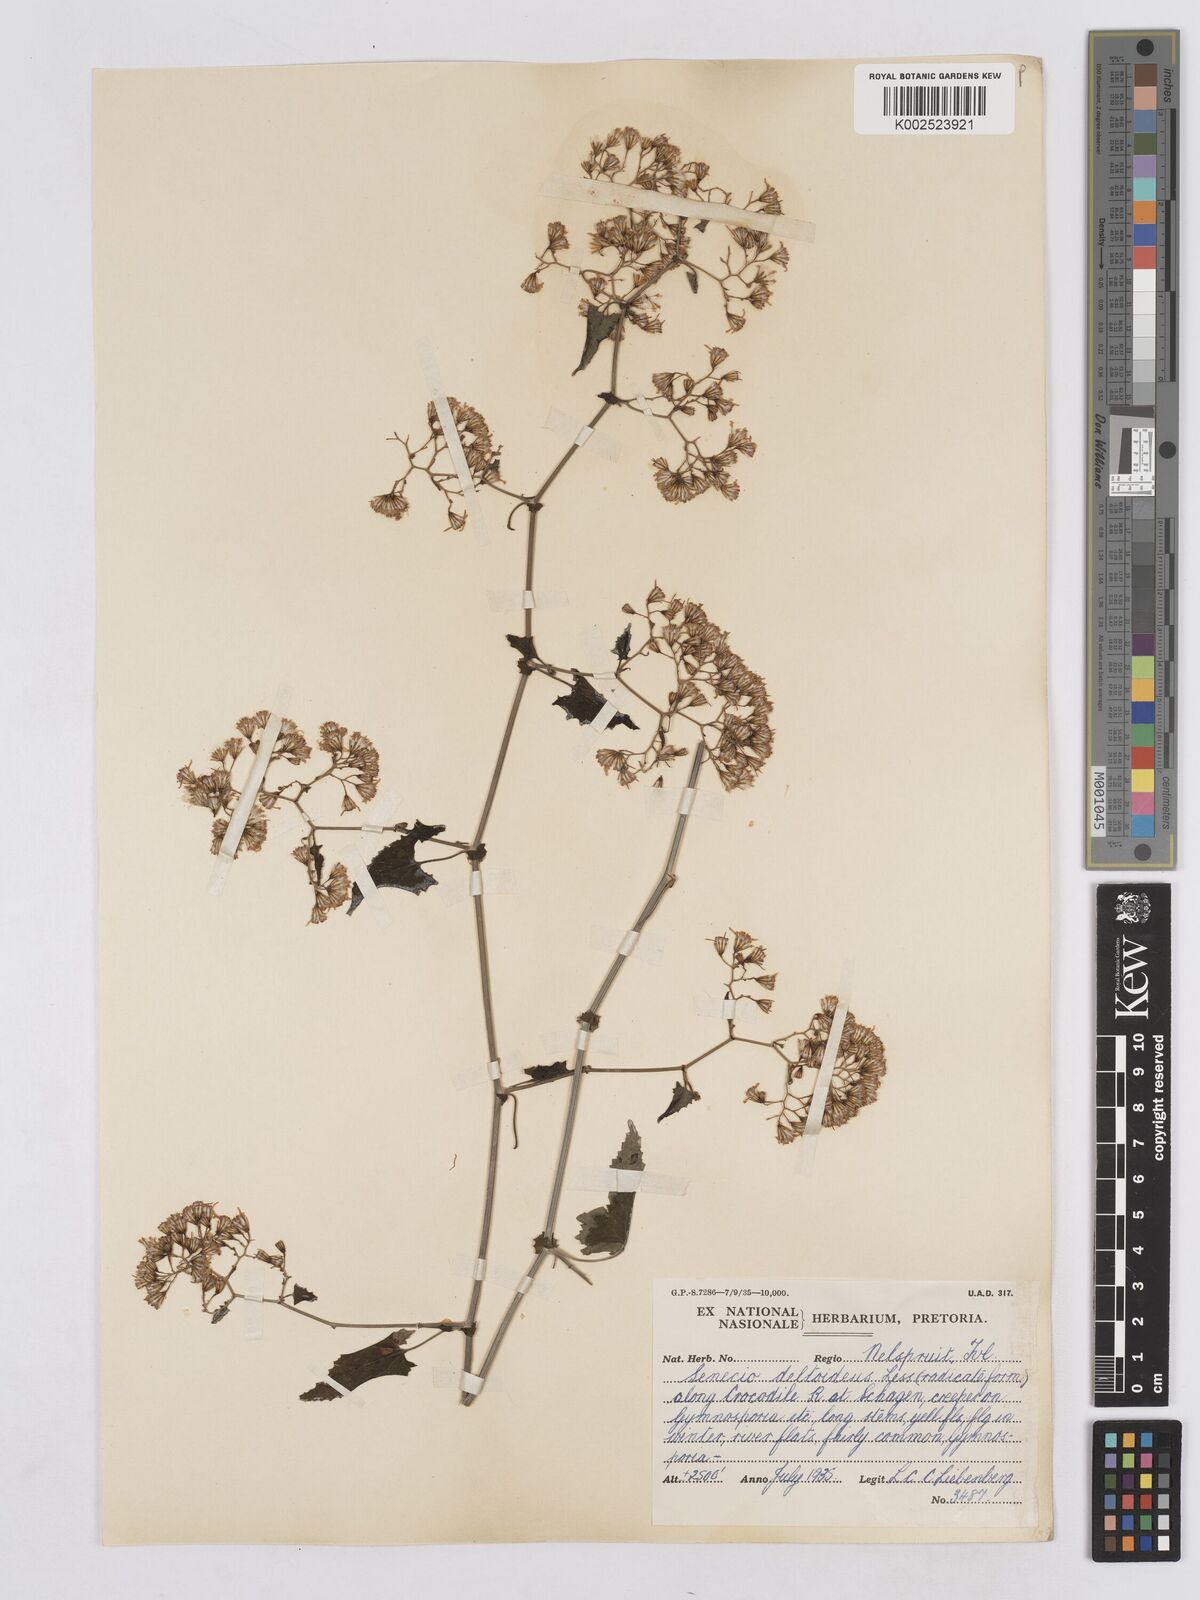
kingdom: Plantae
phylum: Tracheophyta
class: Magnoliopsida
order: Asterales
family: Asteraceae
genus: Senecio
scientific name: Senecio deltoideus
